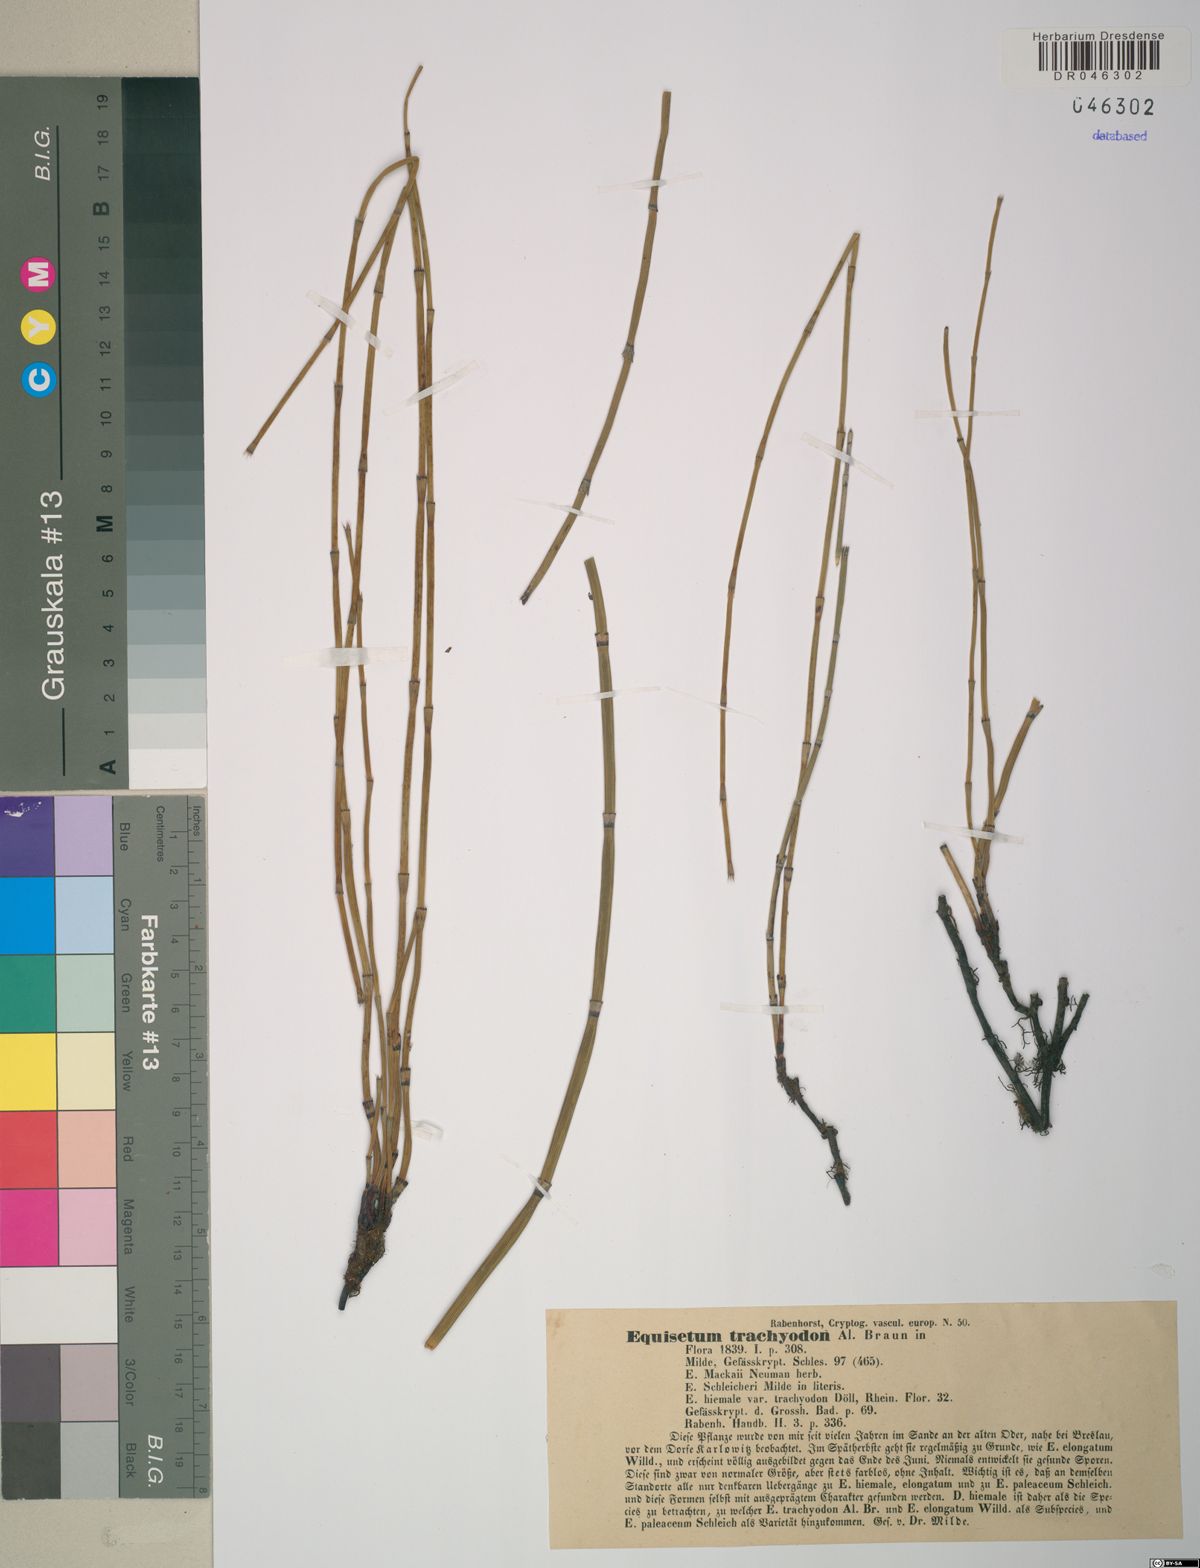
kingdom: Plantae
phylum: Tracheophyta
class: Polypodiopsida
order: Equisetales
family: Equisetaceae
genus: Equisetum
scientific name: Equisetum trachyodon
